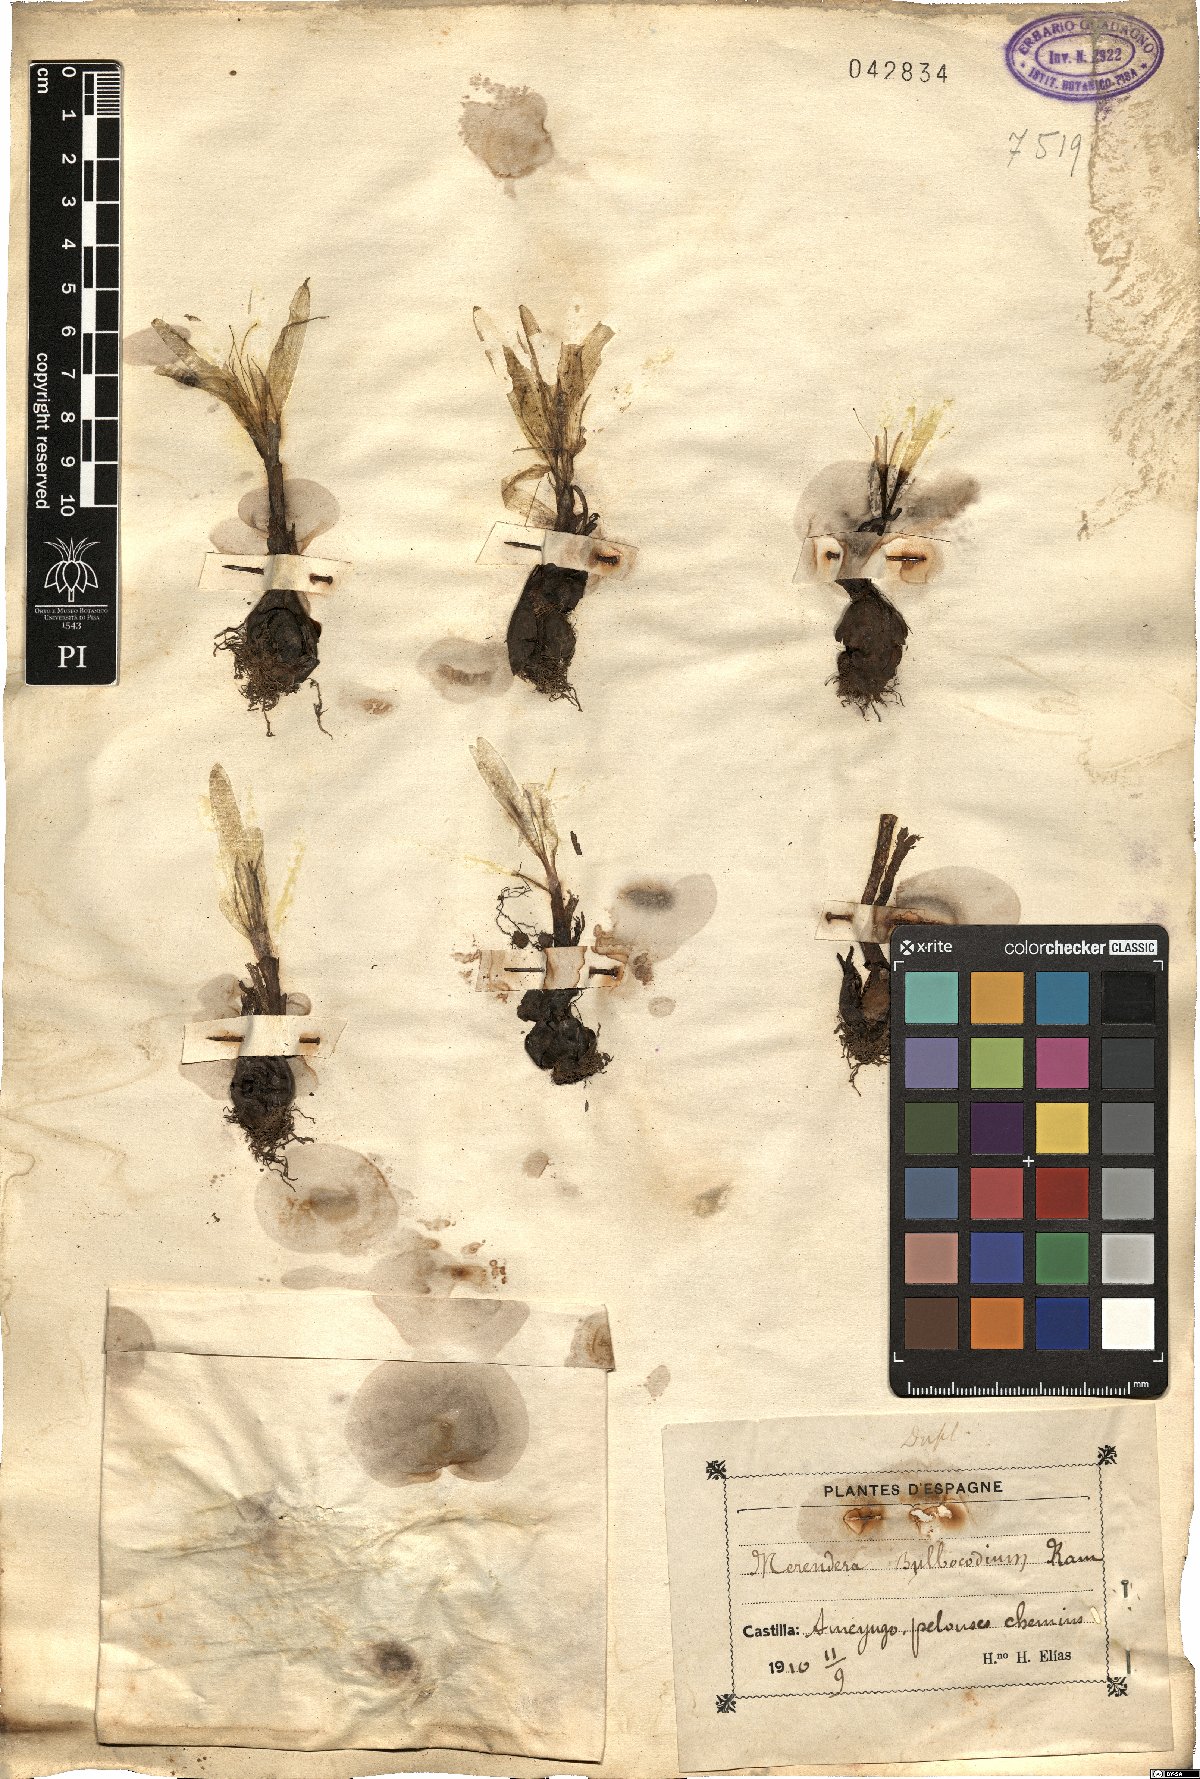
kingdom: Plantae
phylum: Tracheophyta
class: Liliopsida
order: Liliales
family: Colchicaceae
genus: Colchicum
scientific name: Colchicum
